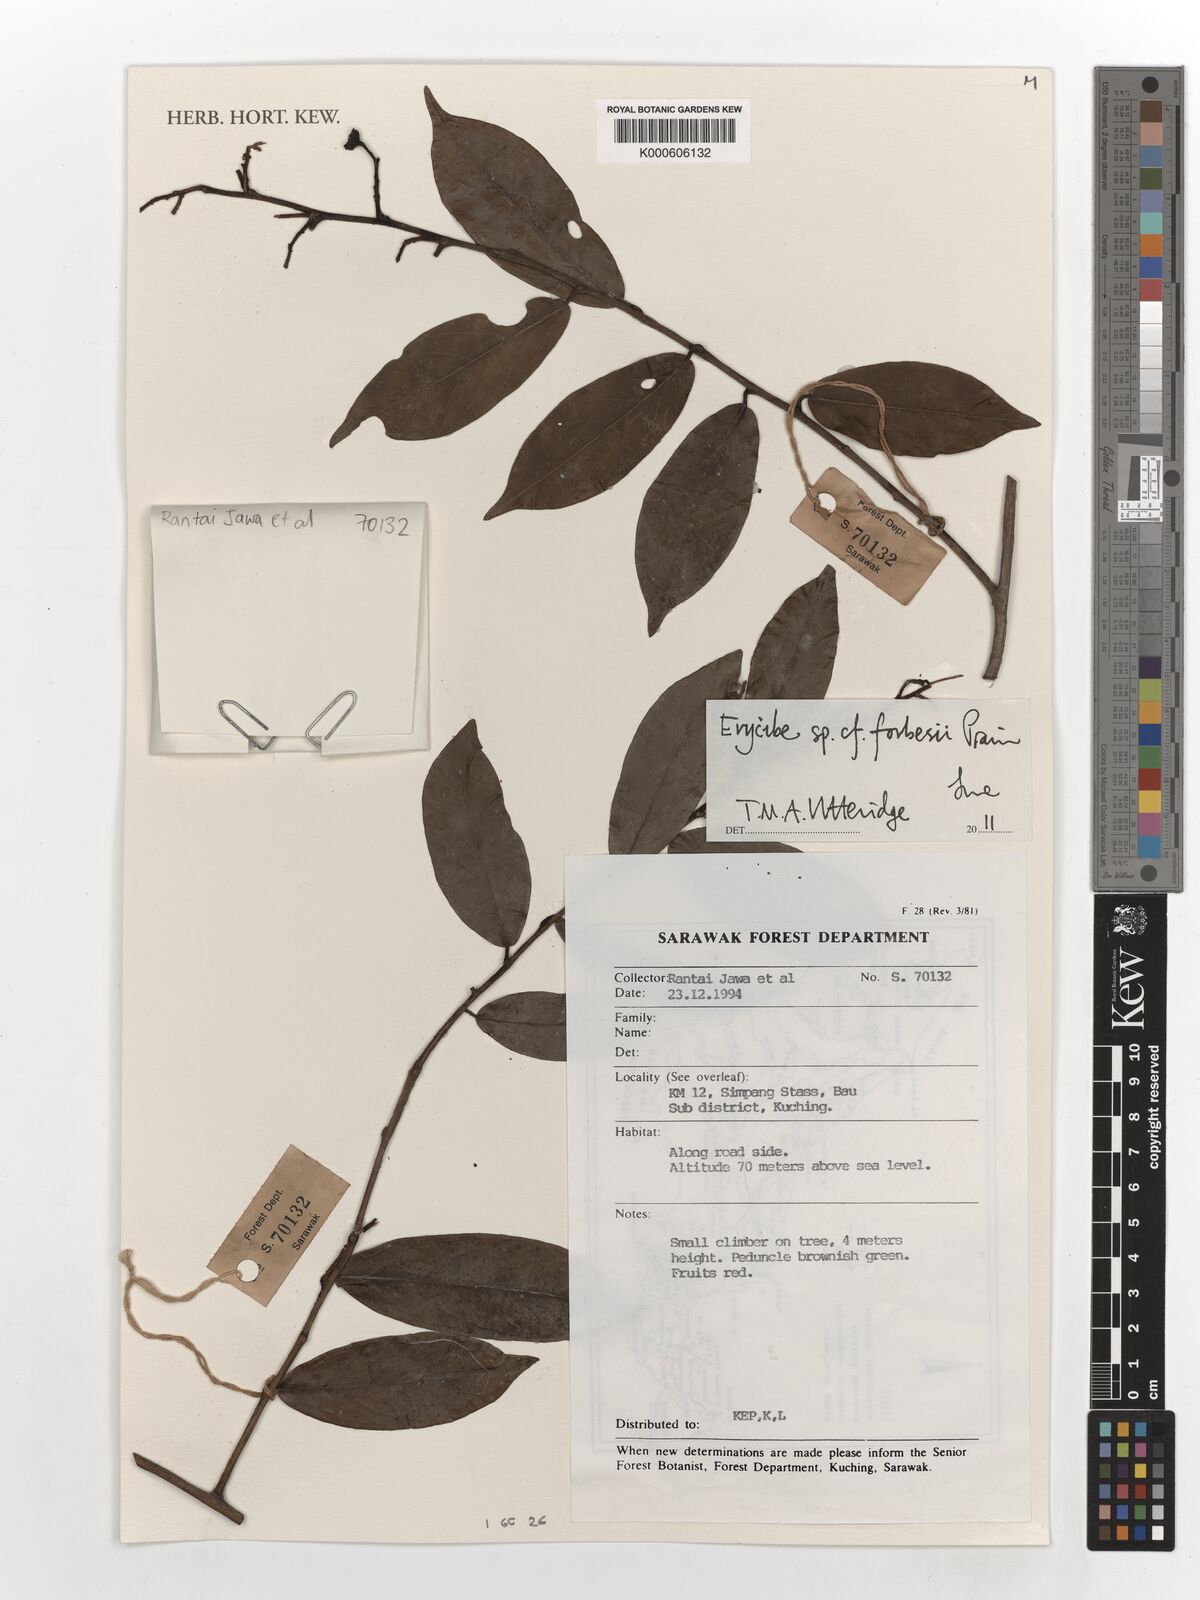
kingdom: Plantae
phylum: Tracheophyta
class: Magnoliopsida
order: Solanales
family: Convolvulaceae
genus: Erycibe
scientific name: Erycibe
